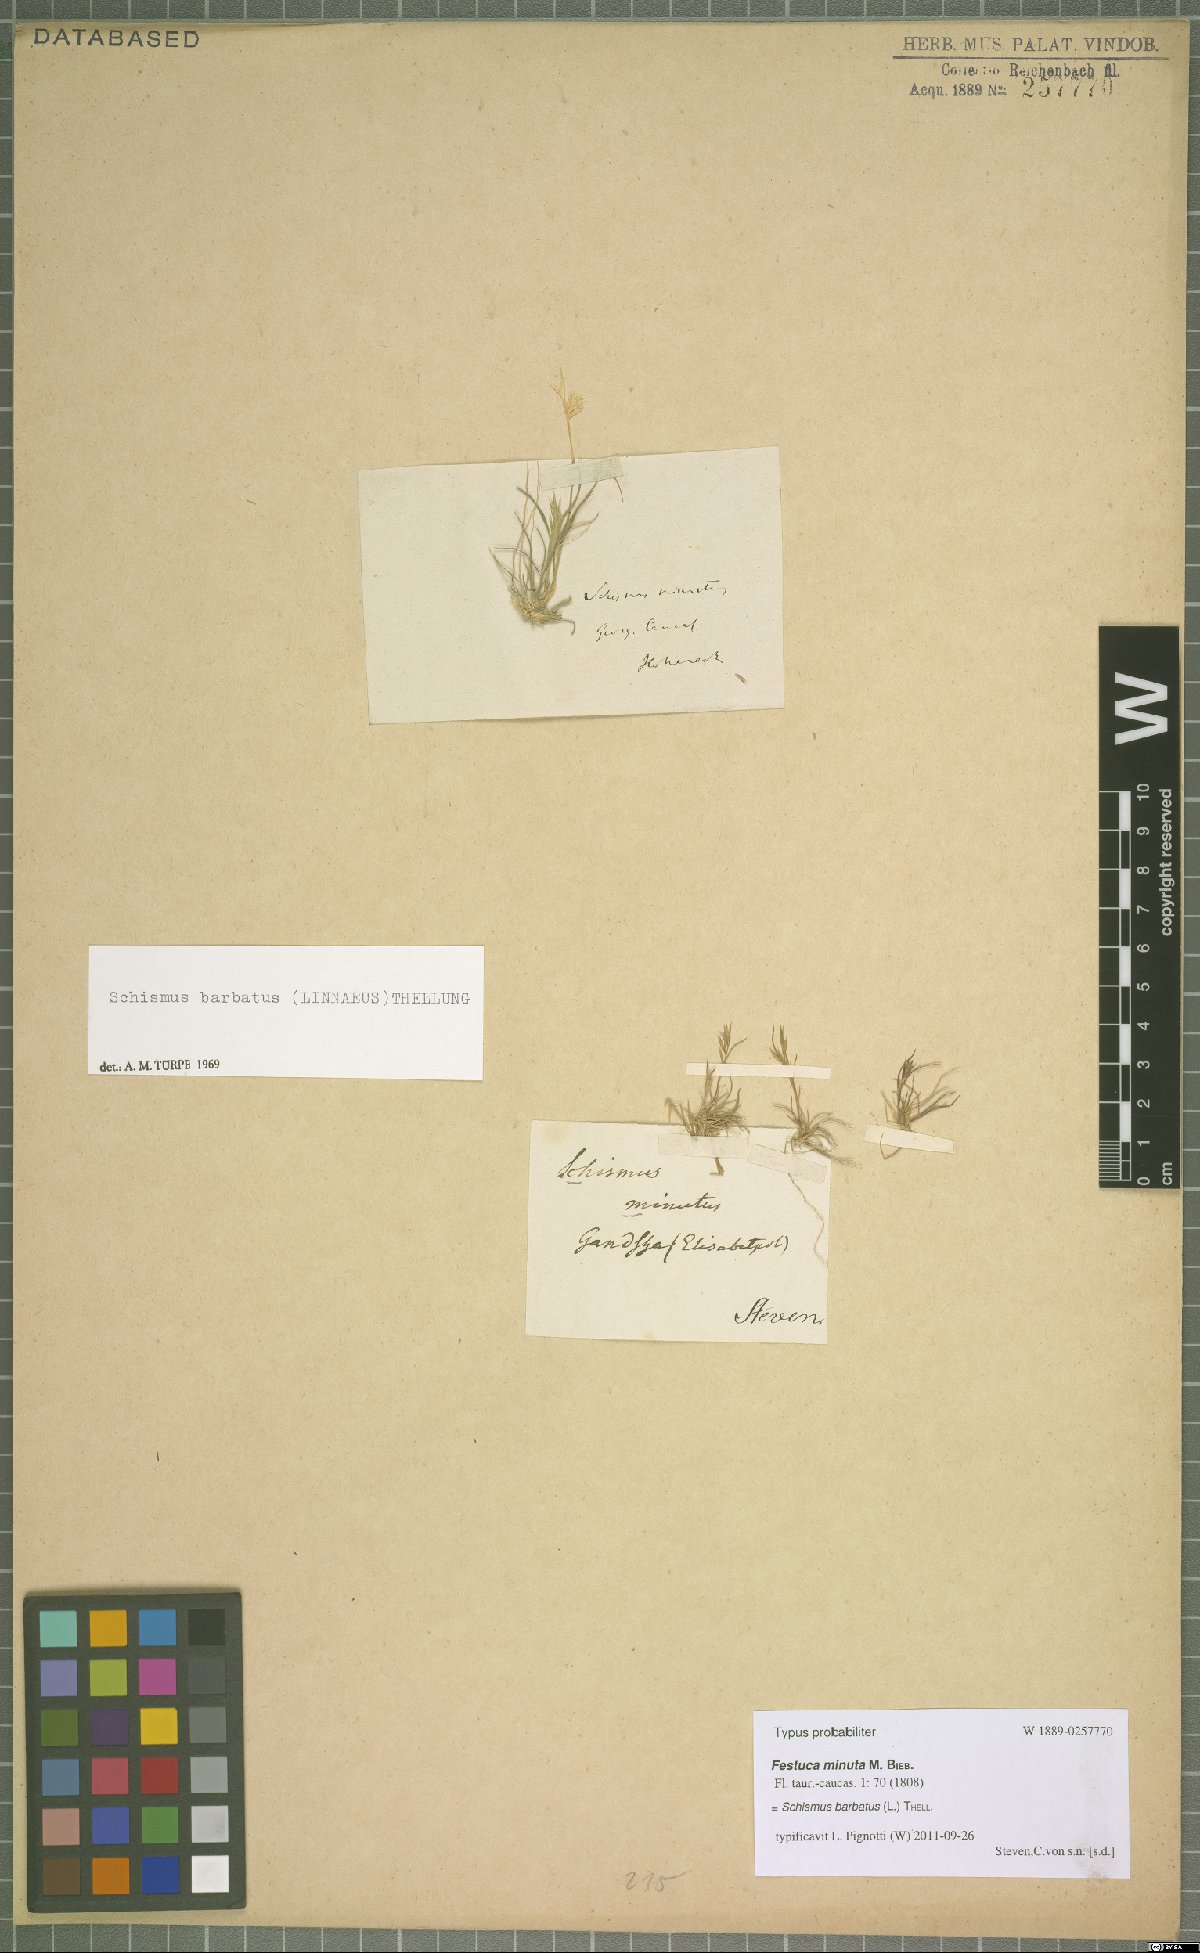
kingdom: Plantae
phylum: Tracheophyta
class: Liliopsida
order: Poales
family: Poaceae
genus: Schismus
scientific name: Schismus barbatus
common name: Kelch-grass
